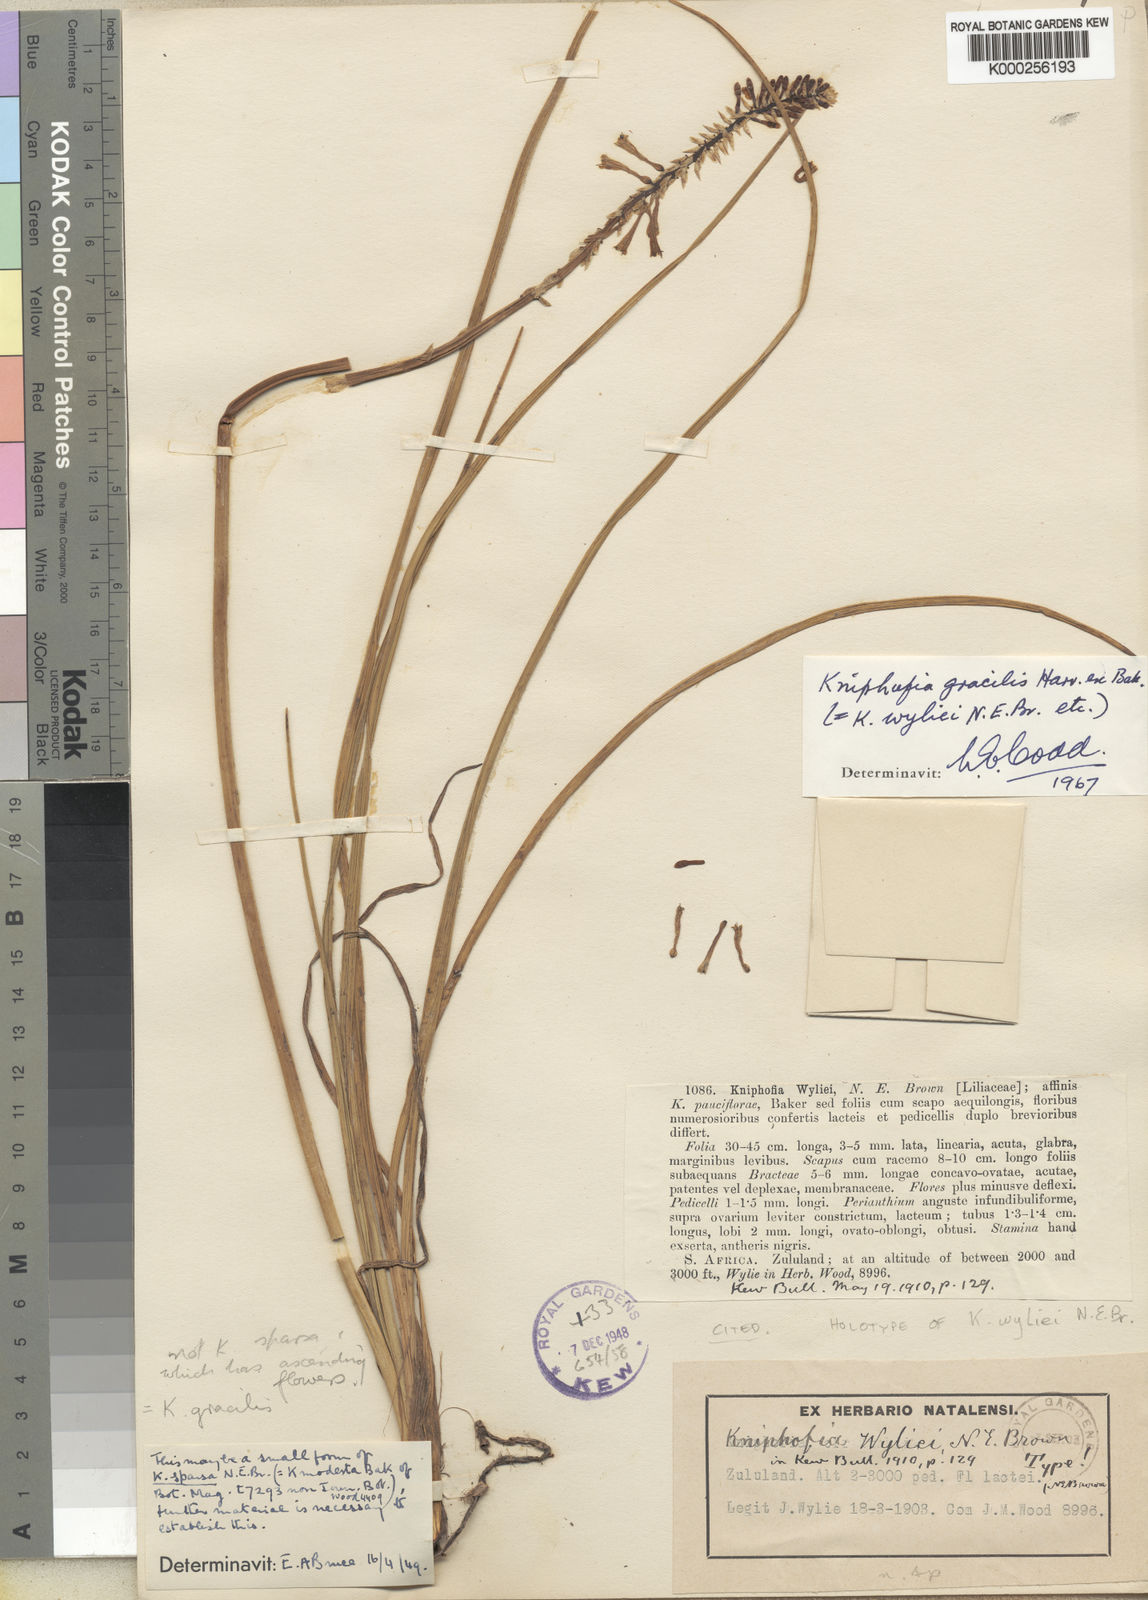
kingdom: Plantae
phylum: Tracheophyta
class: Liliopsida
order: Asparagales
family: Asphodelaceae
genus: Kniphofia
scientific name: Kniphofia gracilis
